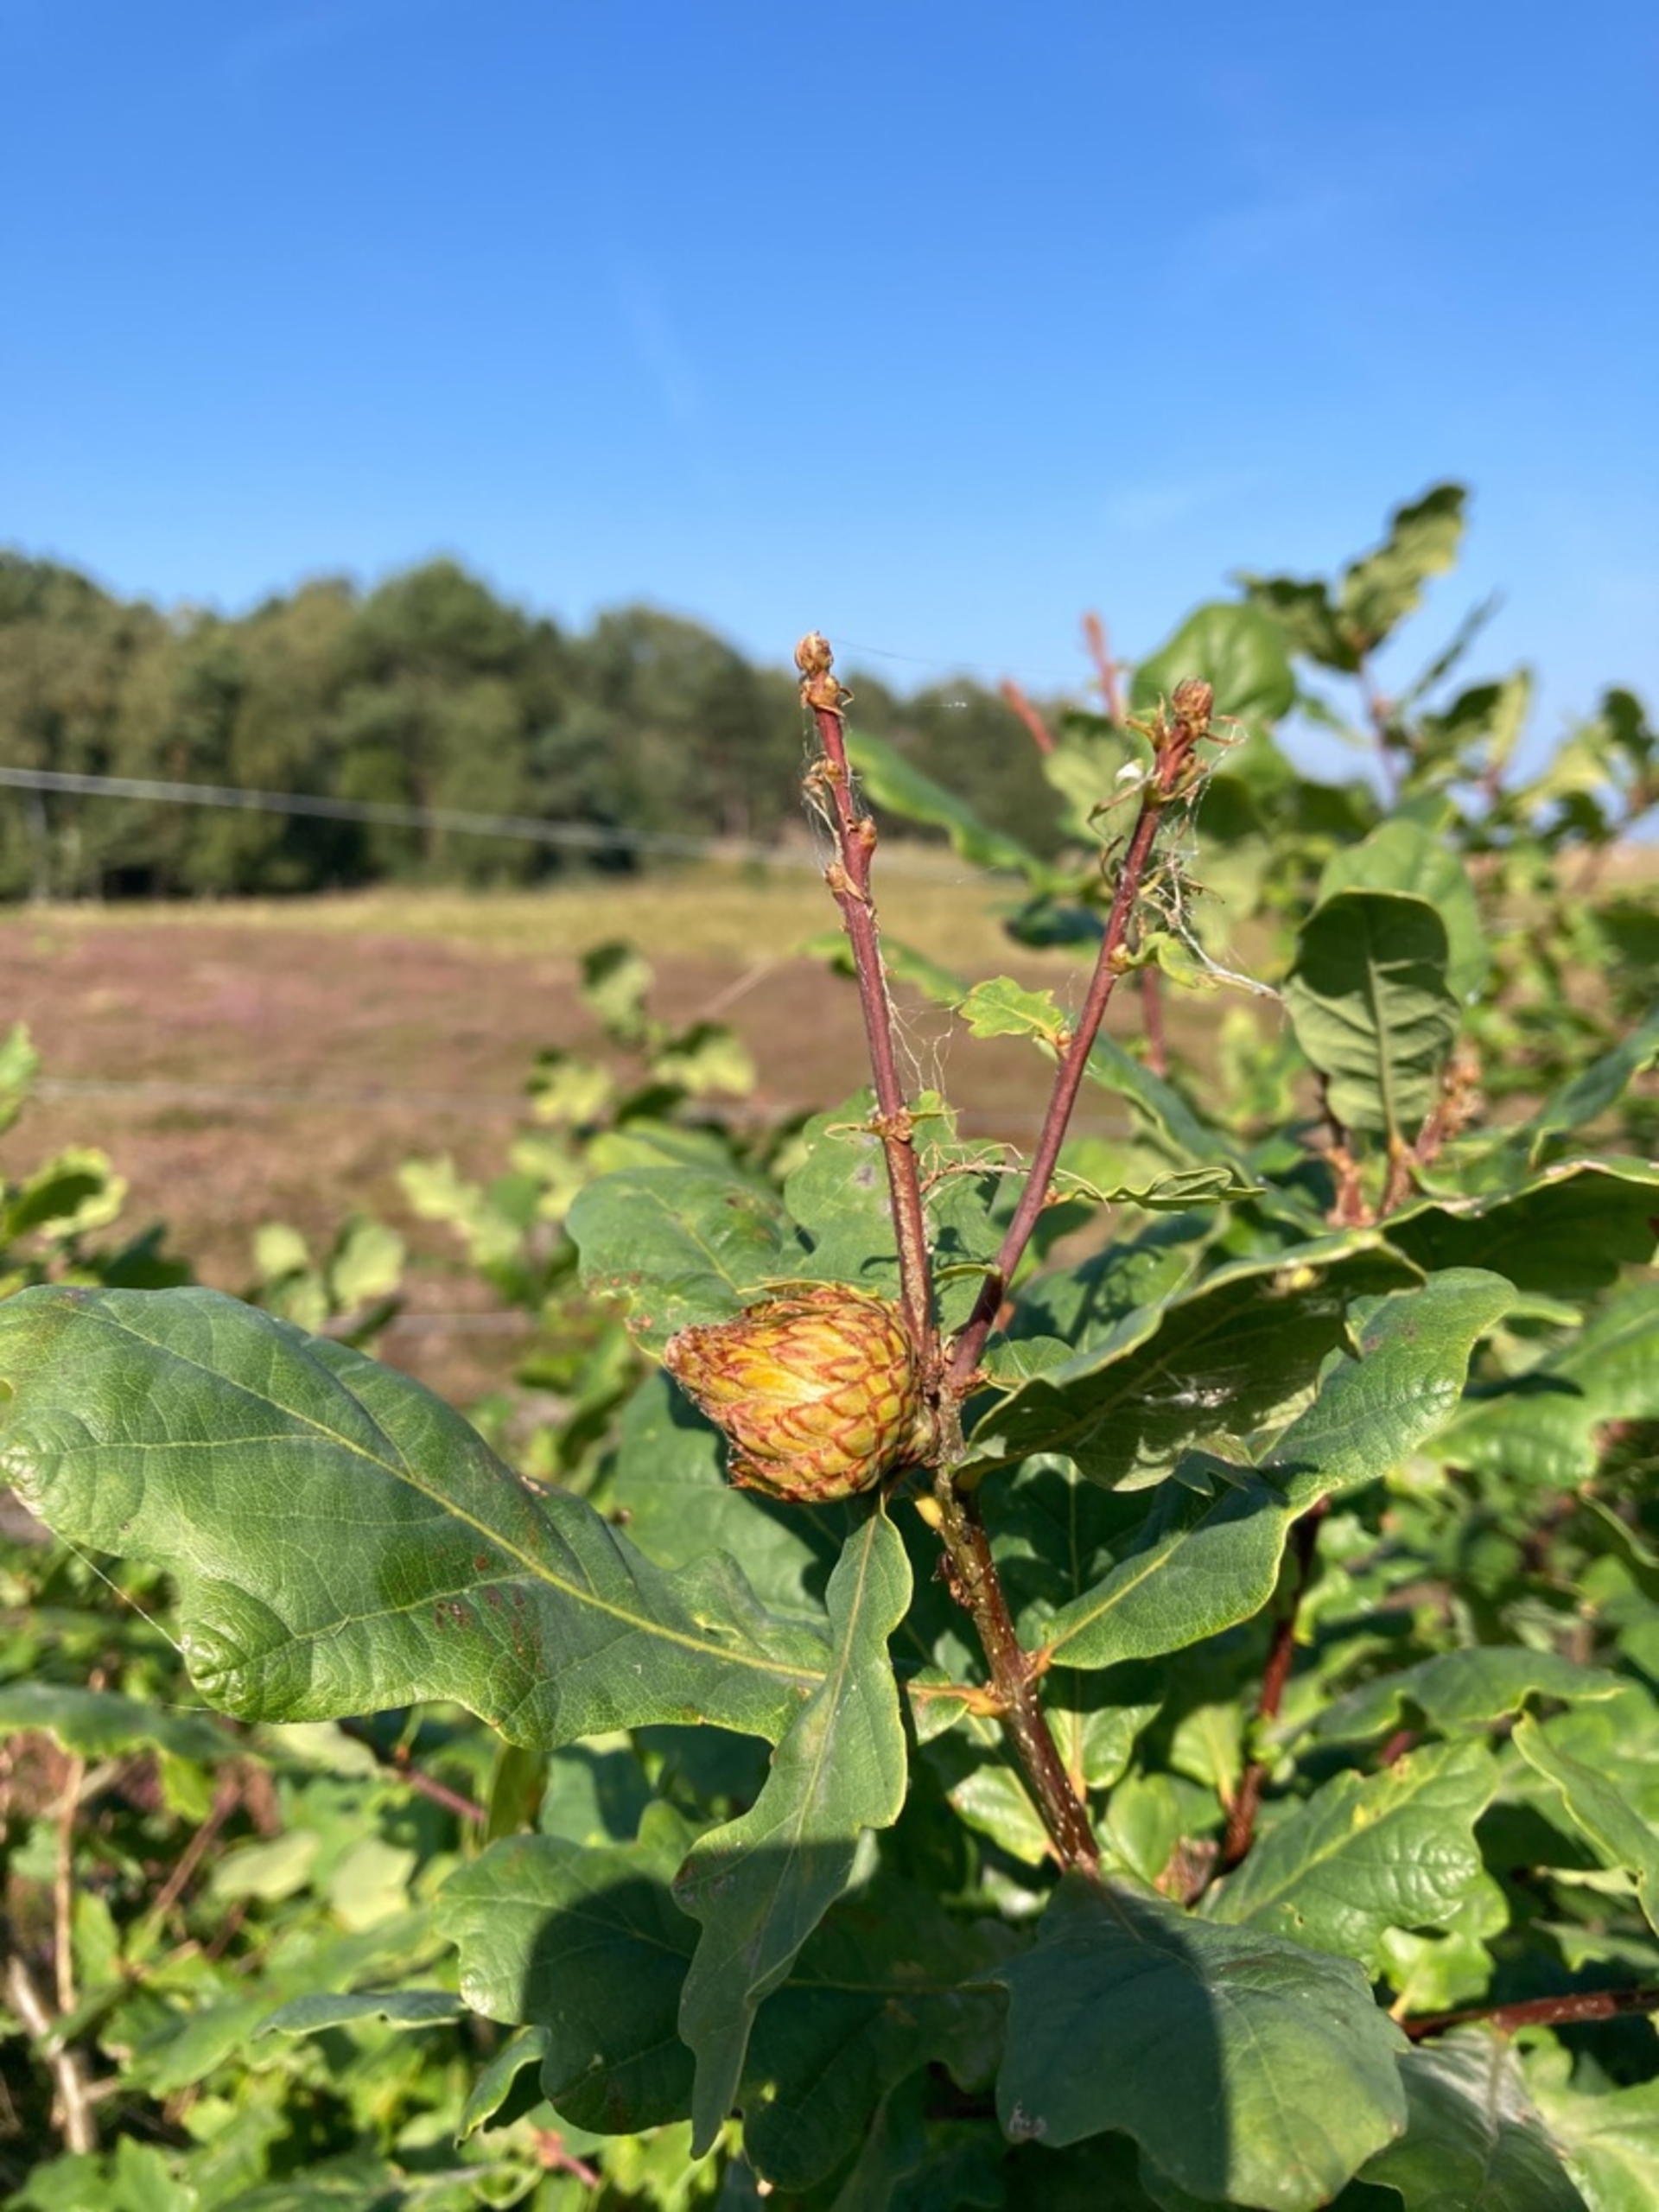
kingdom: Animalia
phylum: Arthropoda
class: Insecta
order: Hymenoptera
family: Cynipidae
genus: Andricus
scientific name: Andricus foecundatrix
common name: Artiskokgalhveps
